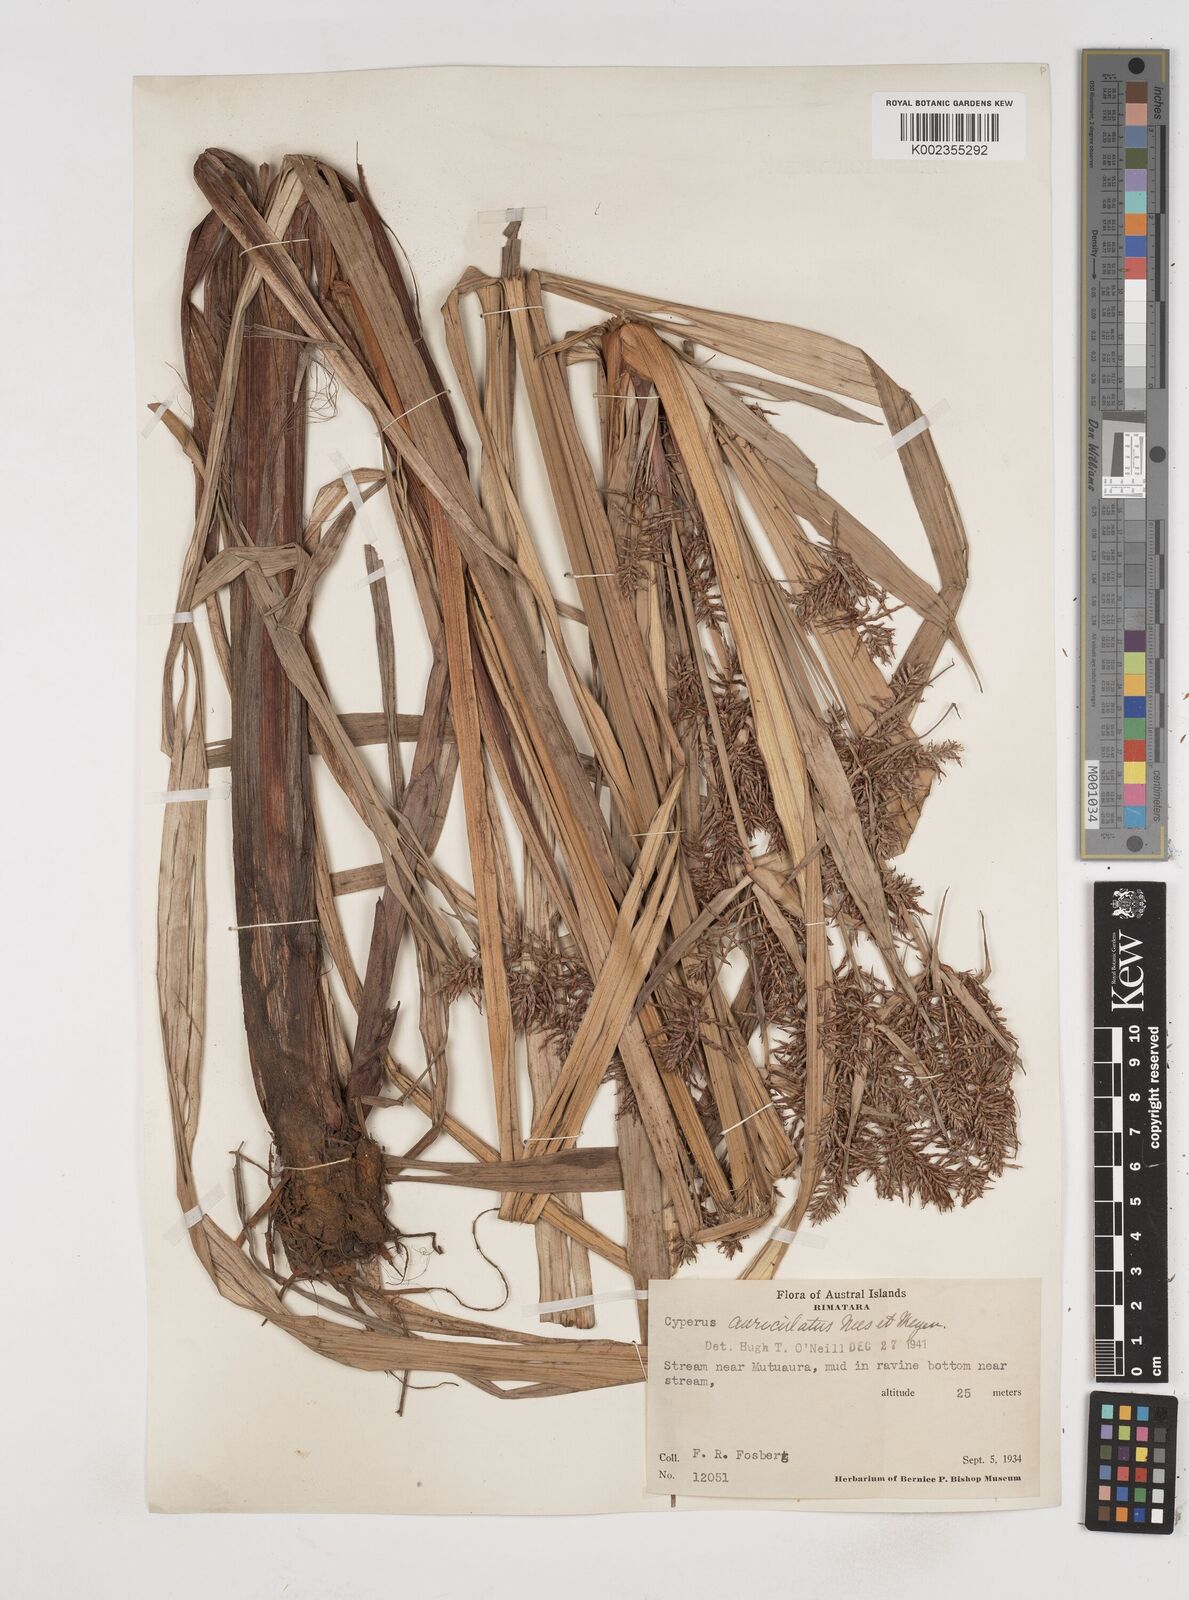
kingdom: Plantae
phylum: Tracheophyta
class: Liliopsida
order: Poales
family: Cyperaceae
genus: Cyperus
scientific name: Cyperus odoratus
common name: Fragrant flatsedge
